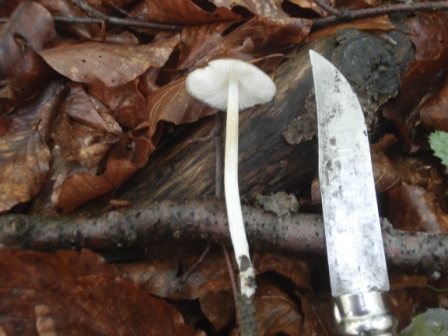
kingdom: Fungi
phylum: Basidiomycota
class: Agaricomycetes
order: Agaricales
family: Physalacriaceae
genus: Hymenopellis
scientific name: Hymenopellis radicata
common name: almindelig pælerodshat
